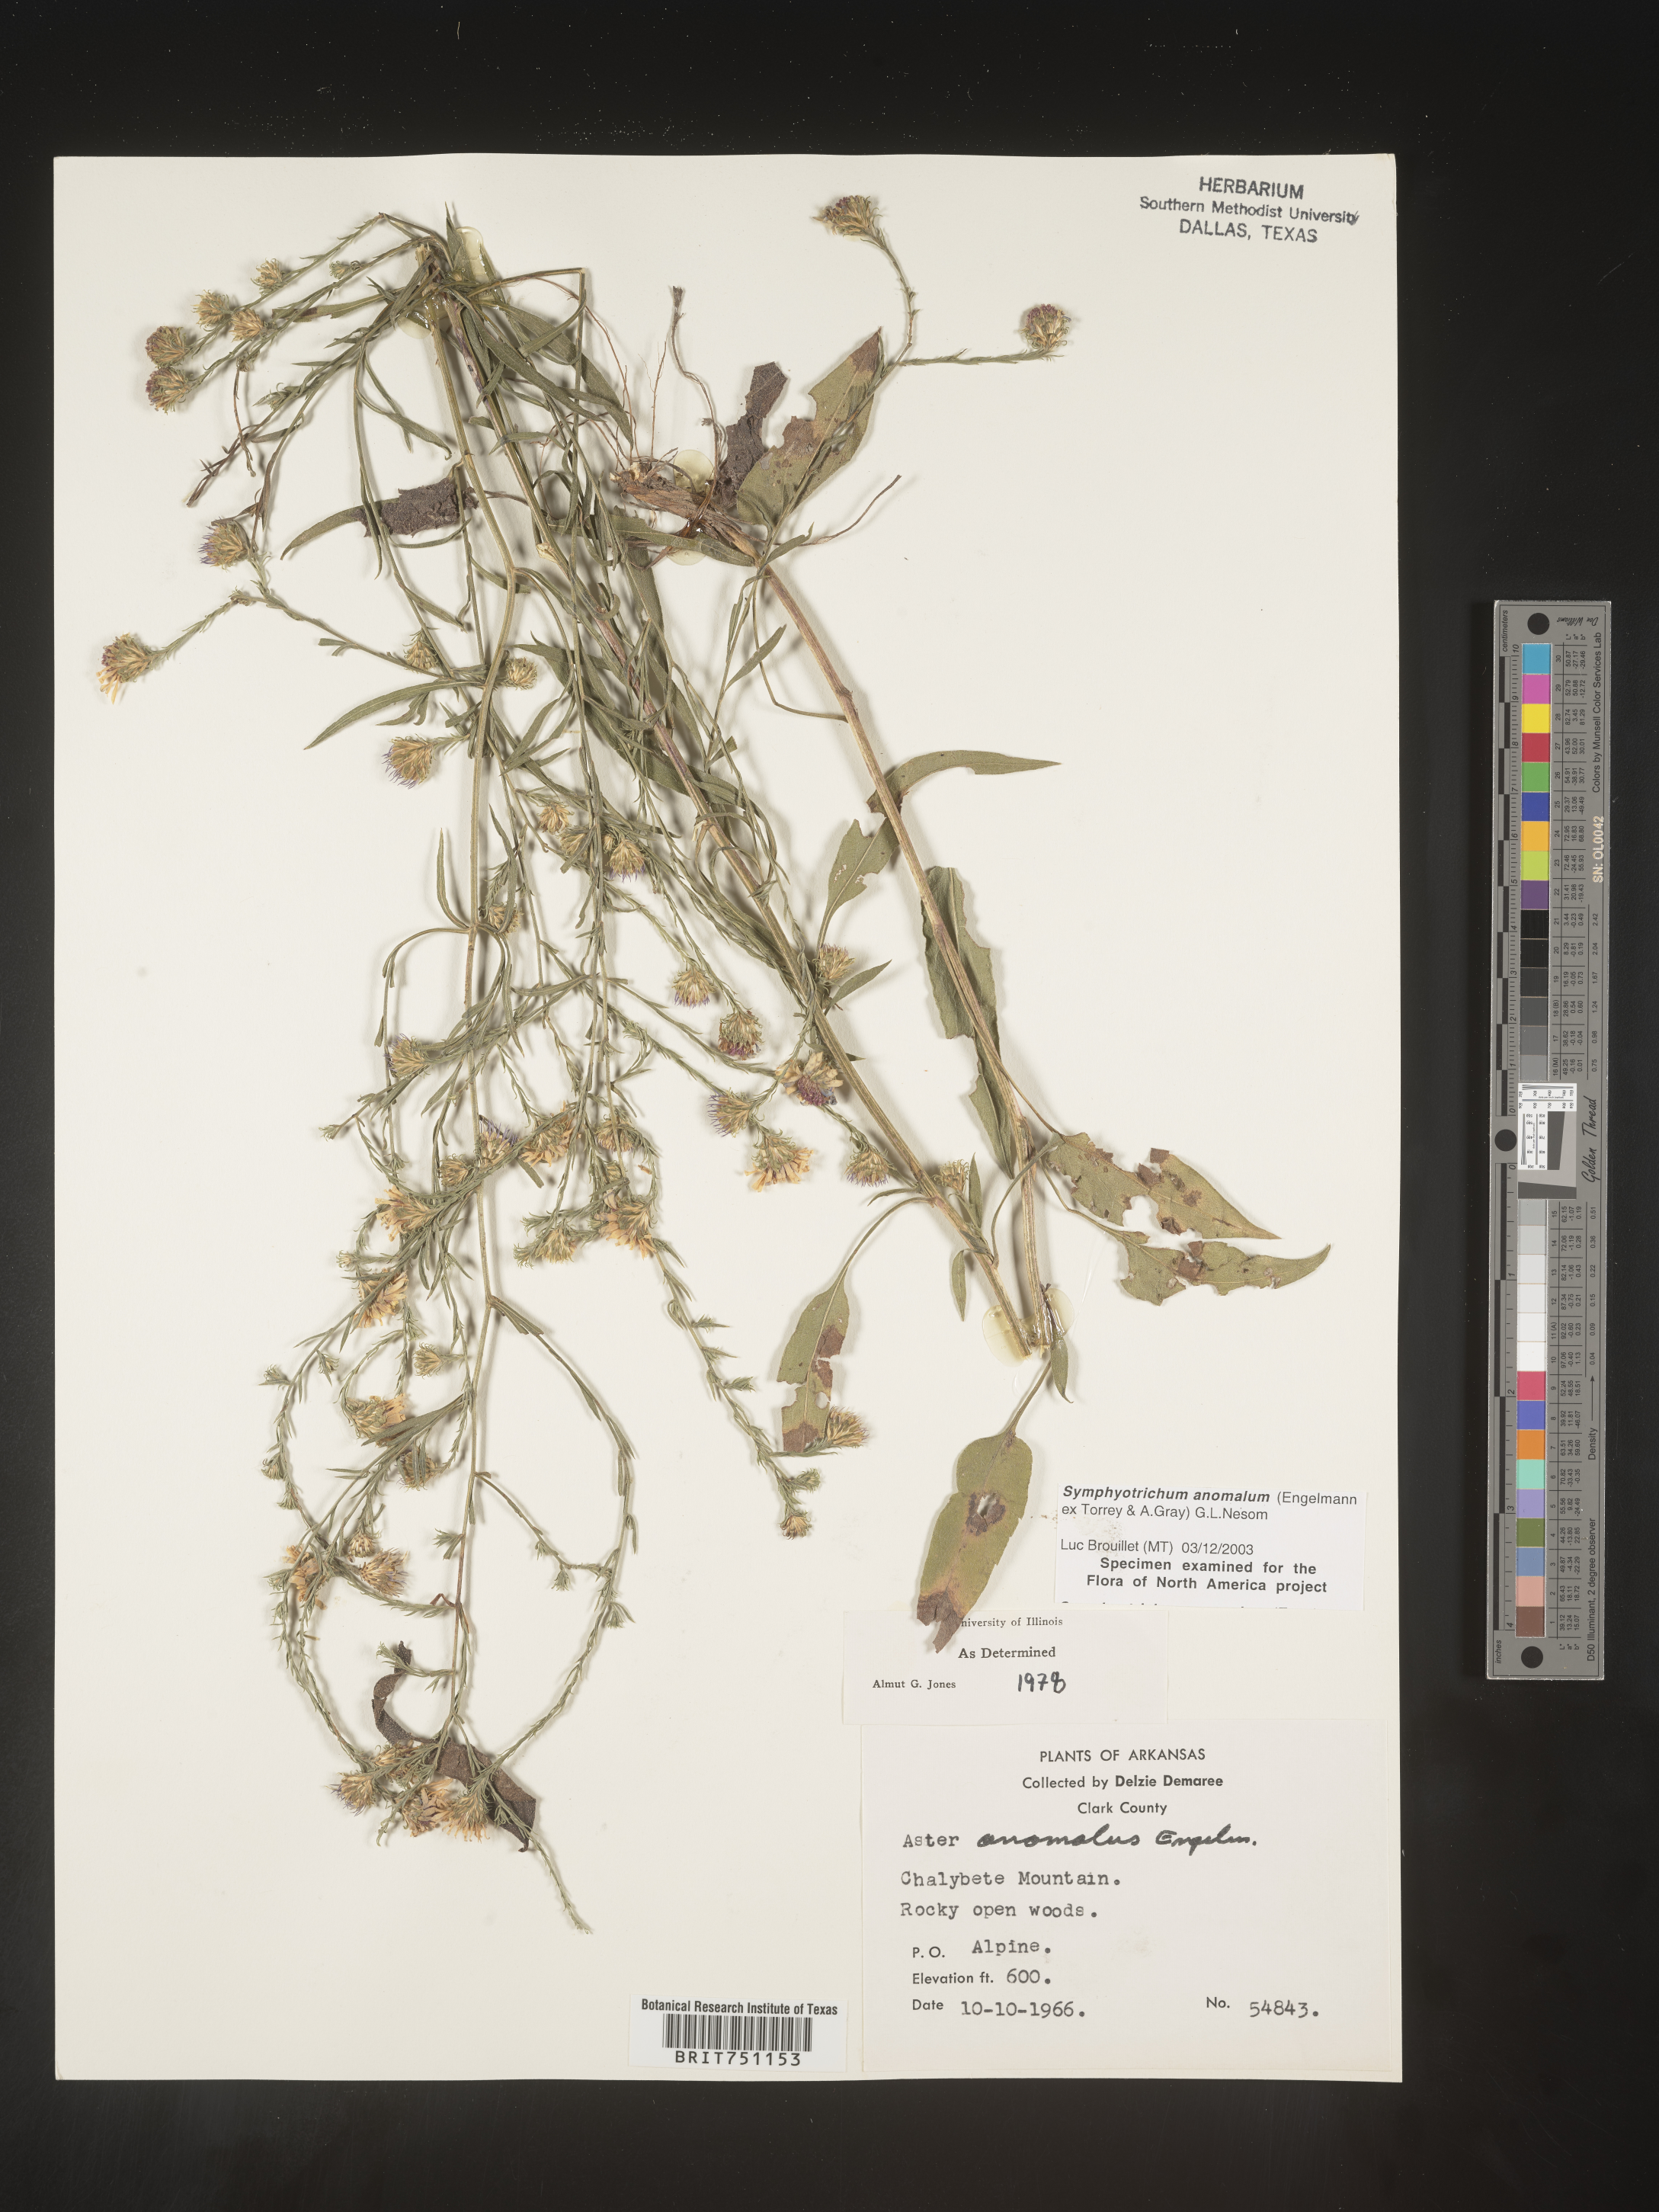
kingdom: Plantae
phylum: Tracheophyta
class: Magnoliopsida
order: Asterales
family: Asteraceae
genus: Symphyotrichum
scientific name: Symphyotrichum anomalum
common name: Many-ray aster
